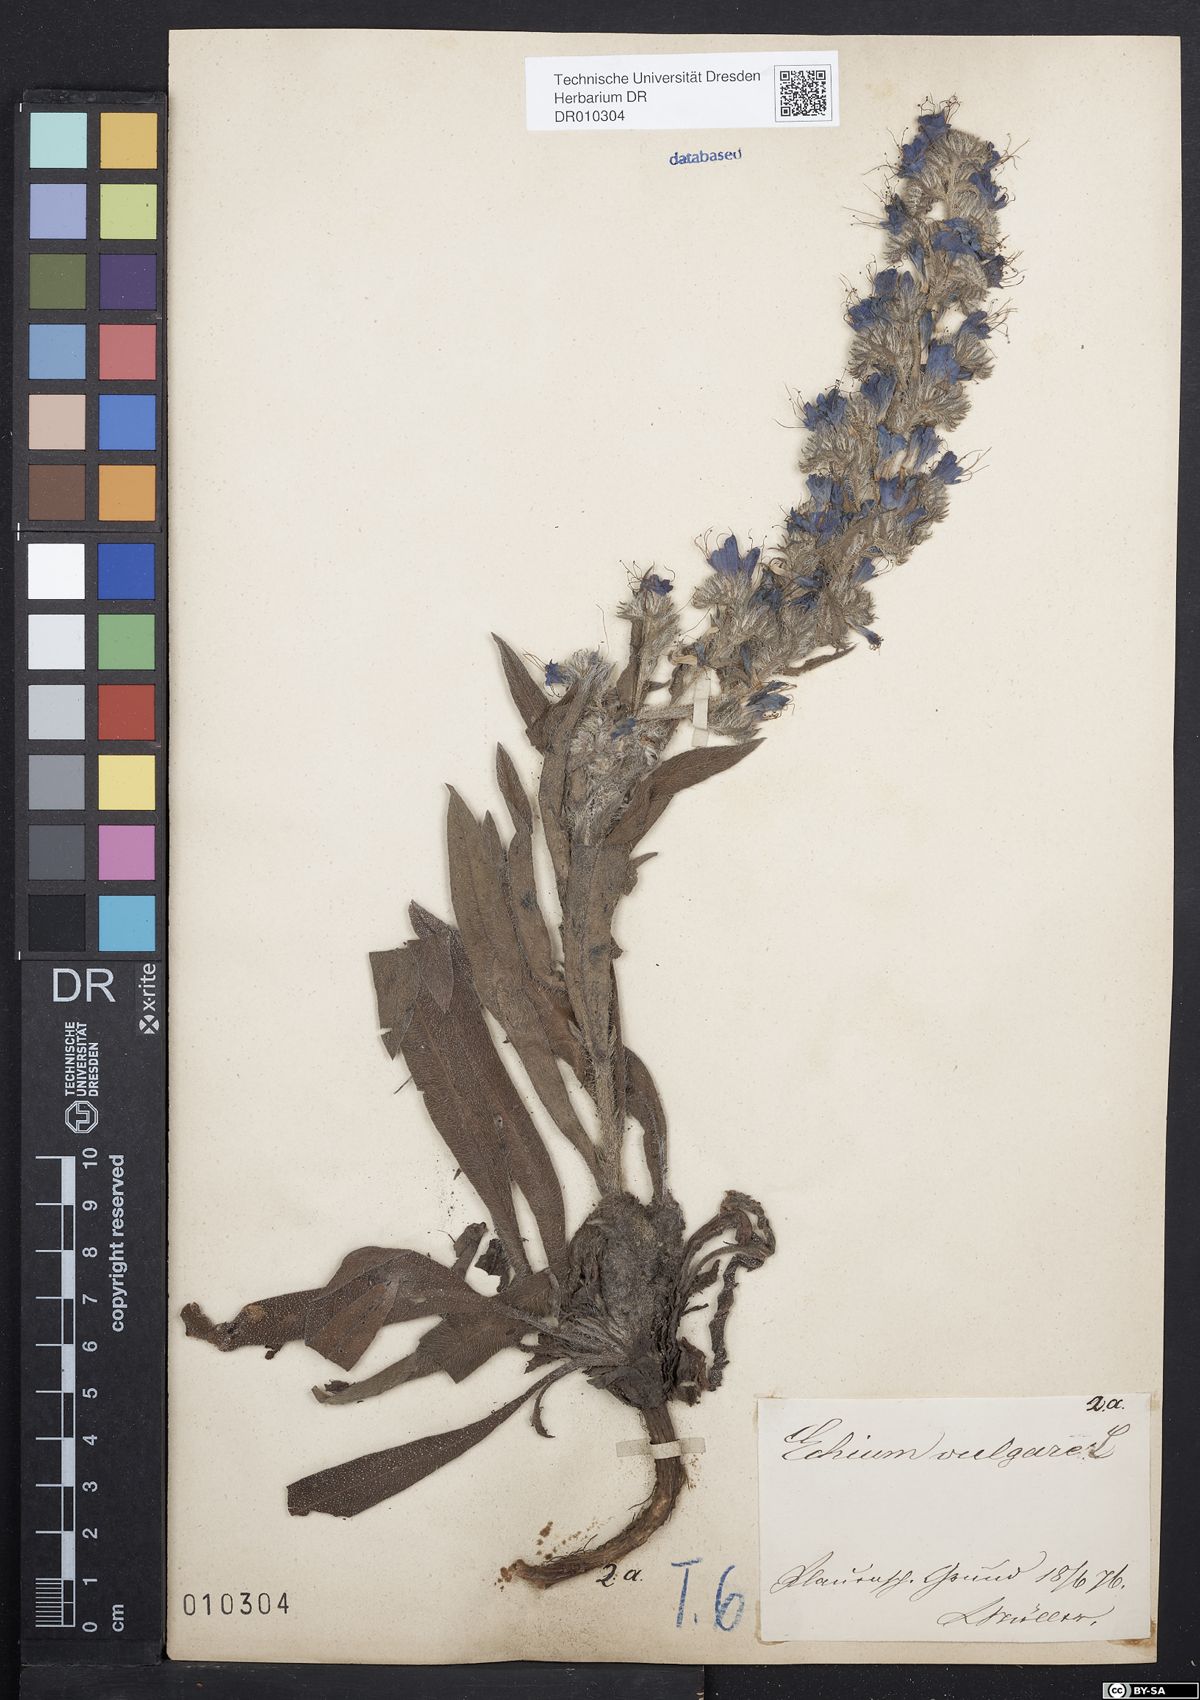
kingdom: Plantae
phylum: Tracheophyta
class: Magnoliopsida
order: Boraginales
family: Boraginaceae
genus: Echium
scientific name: Echium vulgare
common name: Common viper's bugloss
